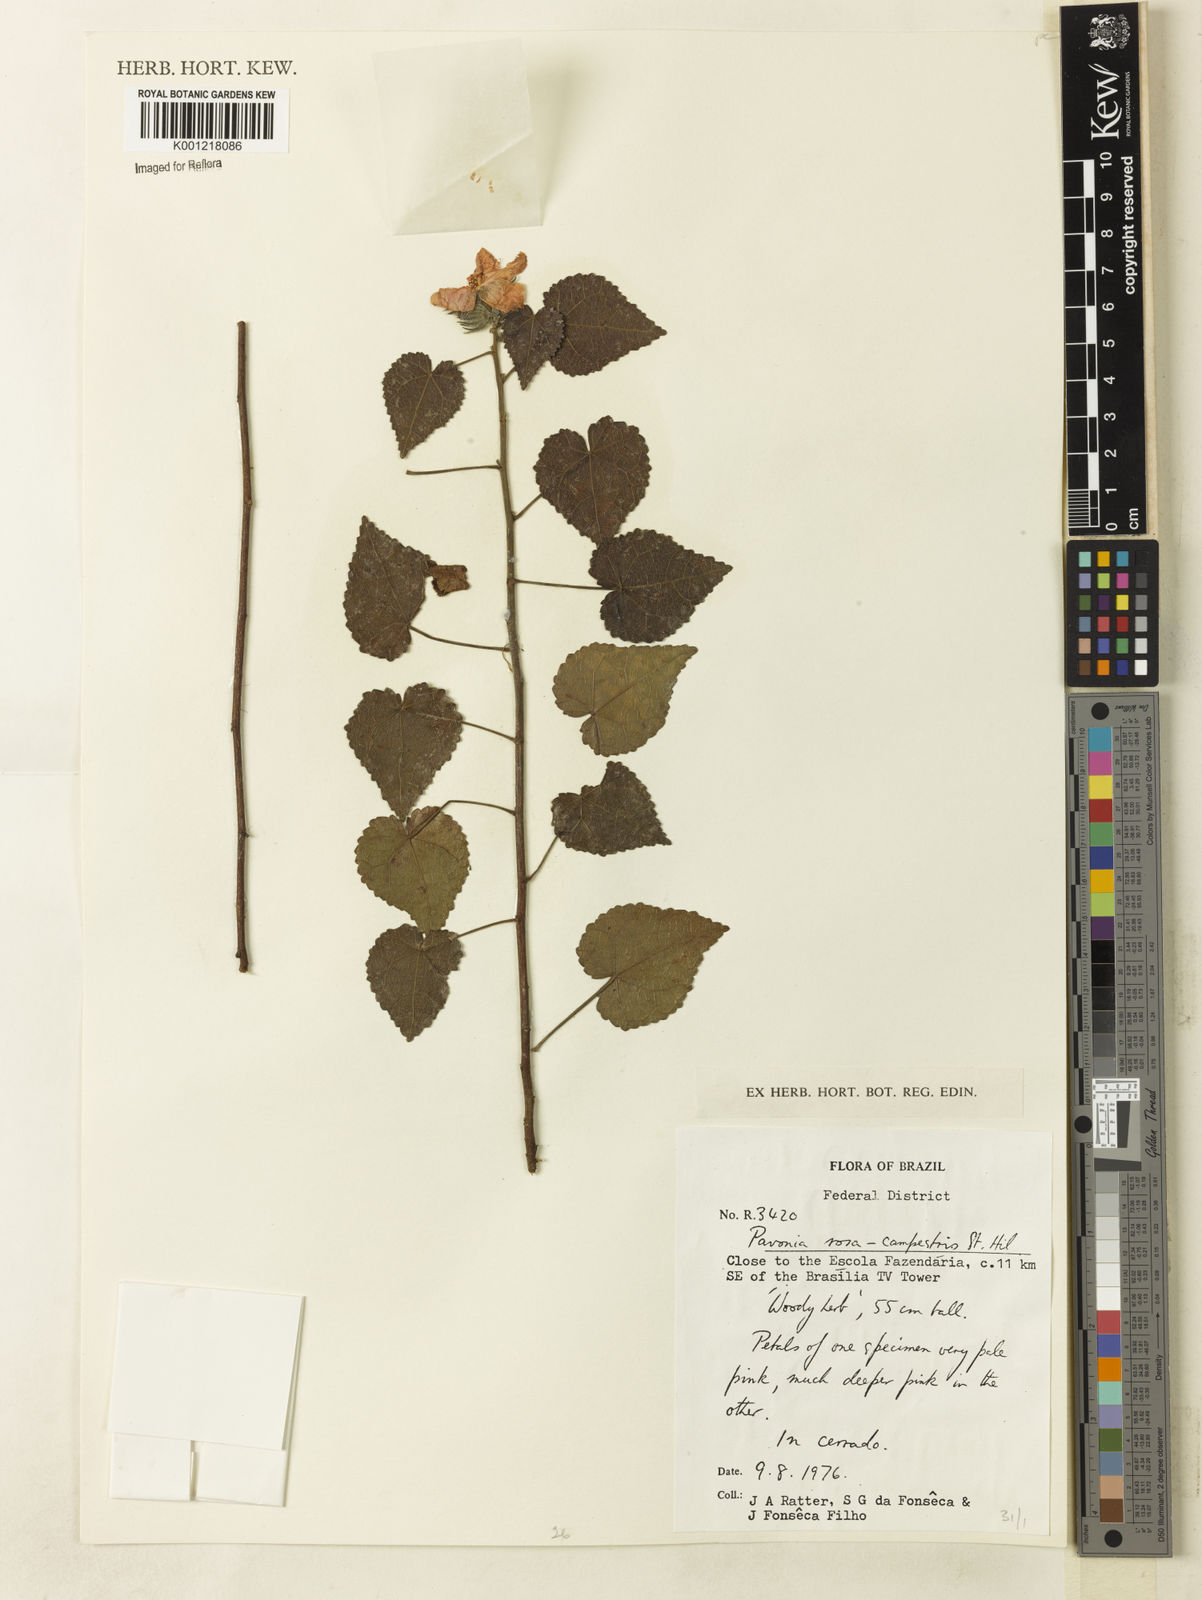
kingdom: Plantae
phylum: Tracheophyta
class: Magnoliopsida
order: Malvales
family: Malvaceae
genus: Pavonia
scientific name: Pavonia rosa-campestris
